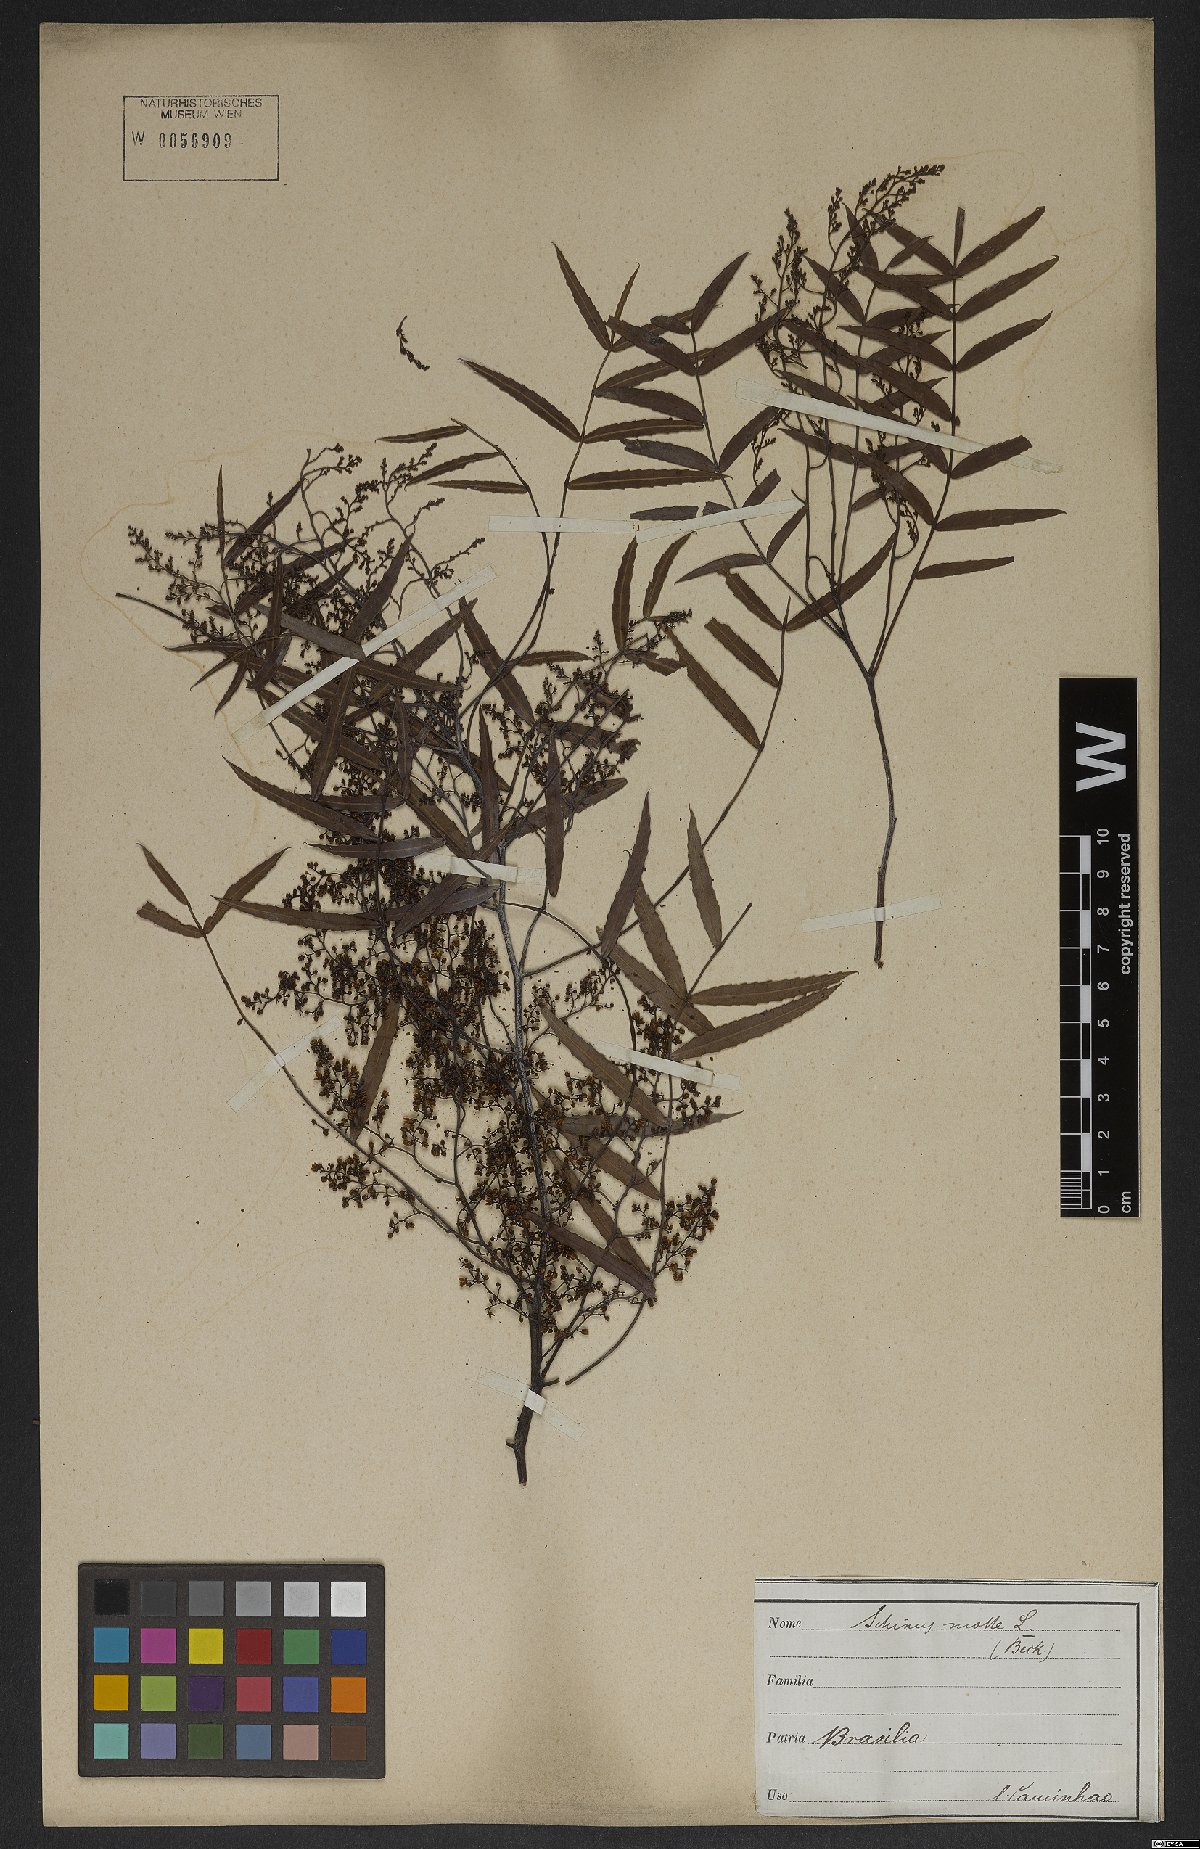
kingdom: Plantae
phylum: Tracheophyta
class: Magnoliopsida
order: Sapindales
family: Anacardiaceae
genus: Schinus
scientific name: Schinus molle
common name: Peruvian peppertree
